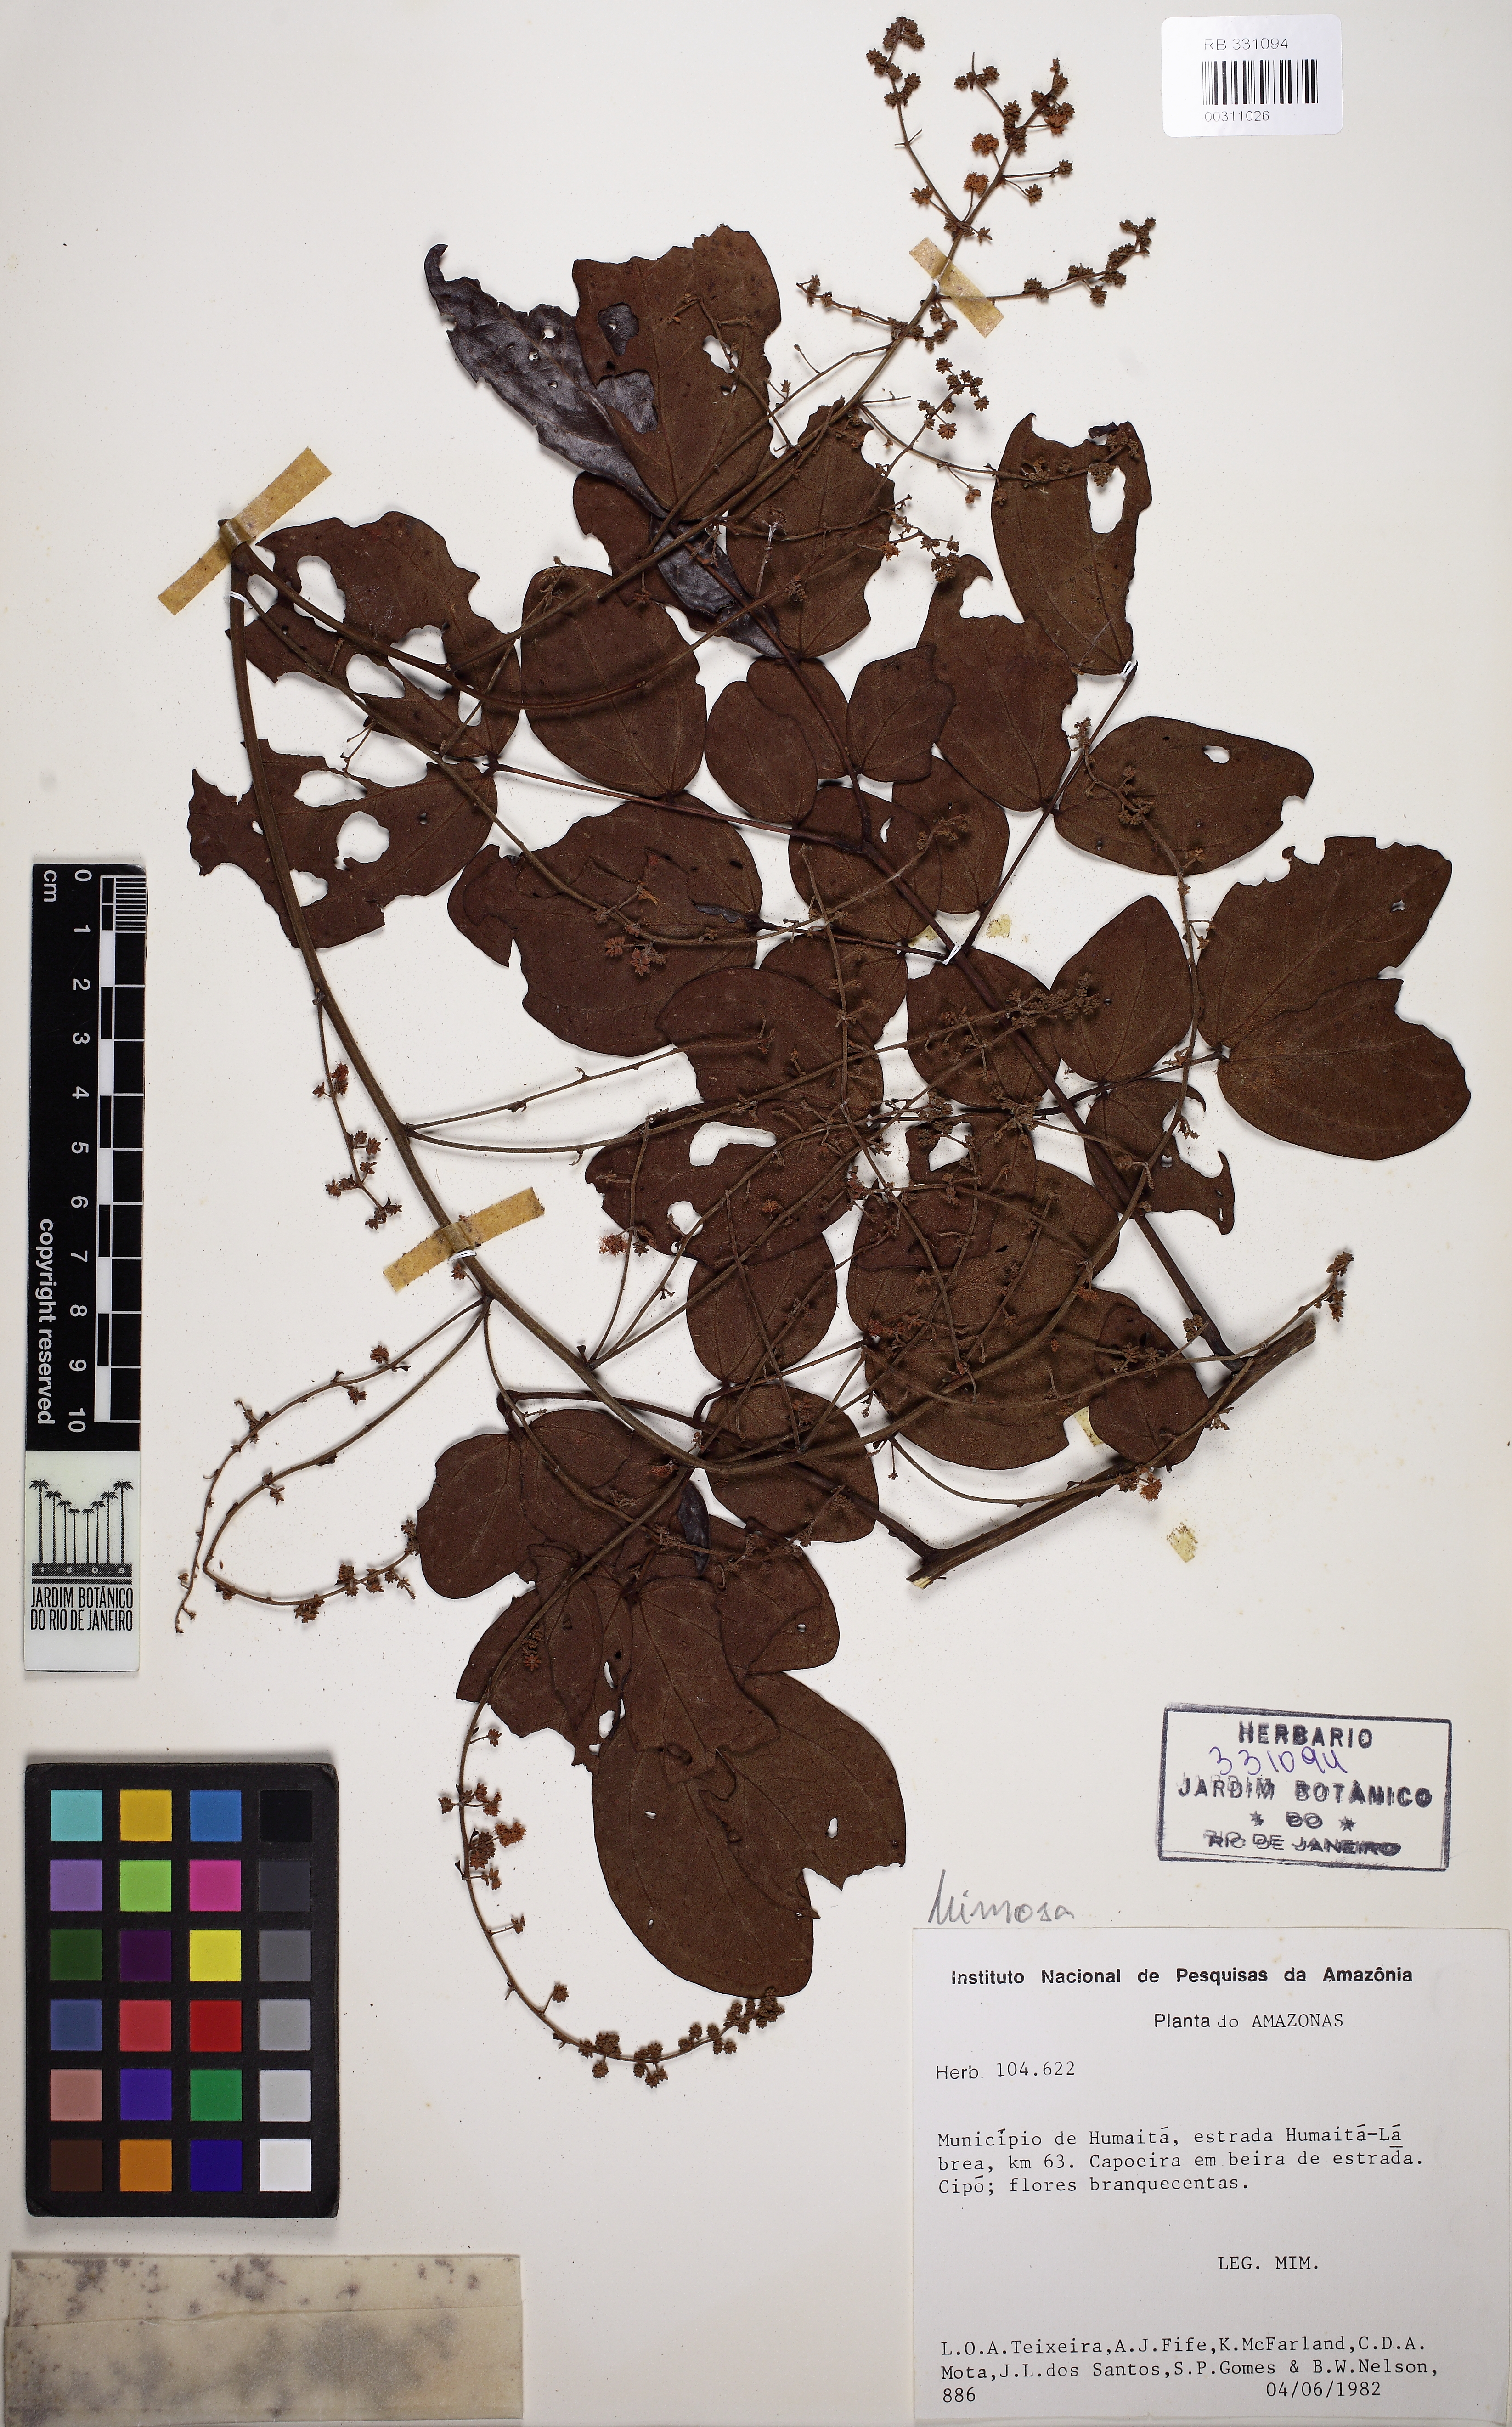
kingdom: Plantae
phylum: Tracheophyta
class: Magnoliopsida
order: Fabales
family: Fabaceae
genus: Mimosa
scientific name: Mimosa guilandinae
